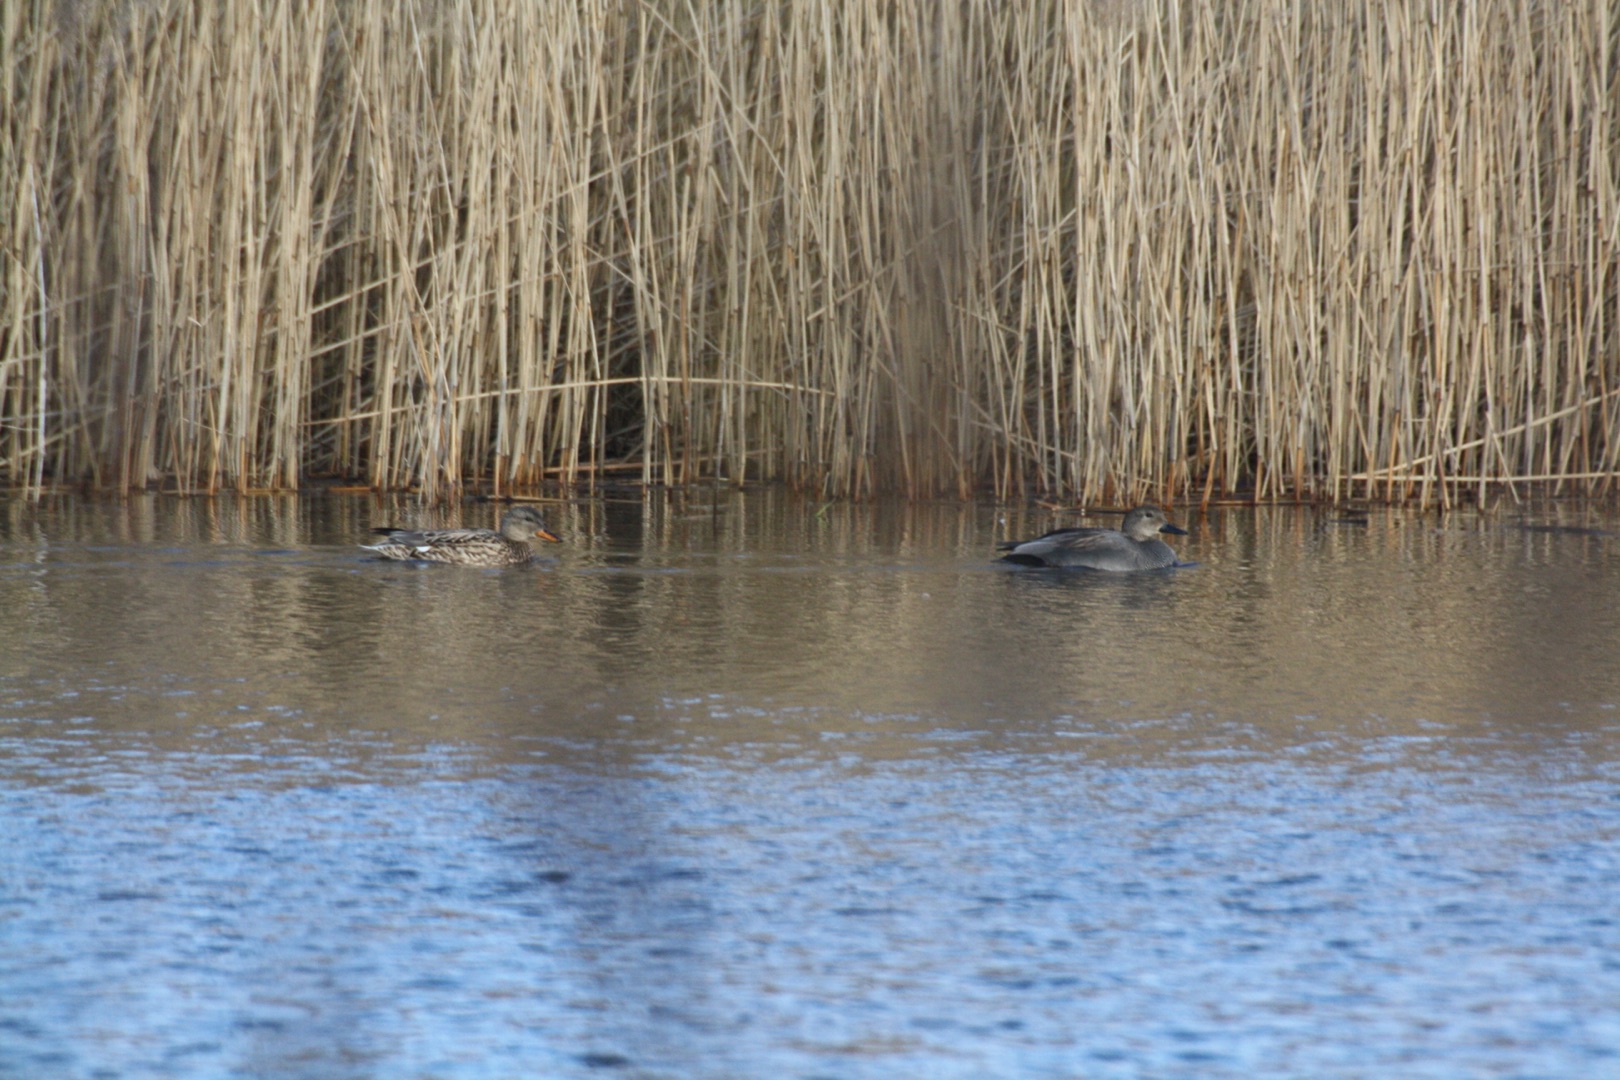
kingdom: Animalia
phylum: Chordata
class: Aves
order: Anseriformes
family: Anatidae
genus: Mareca
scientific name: Mareca strepera
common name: Knarand
